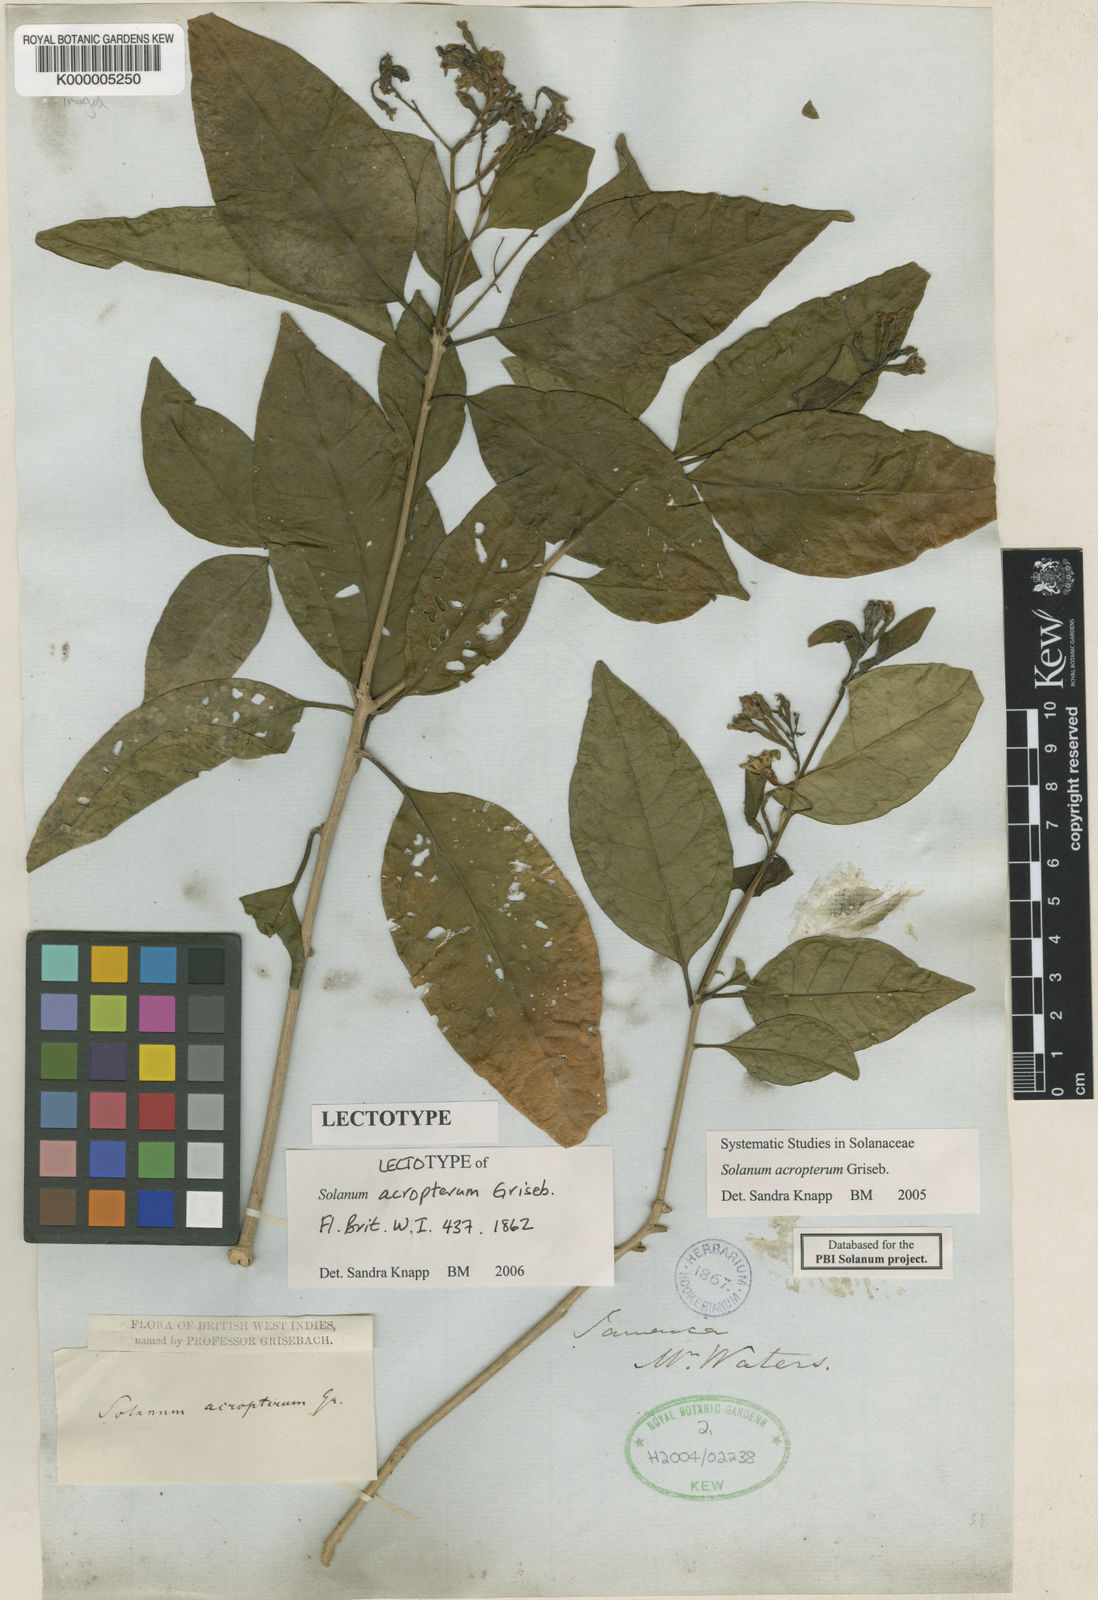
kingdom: Plantae
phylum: Tracheophyta
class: Magnoliopsida
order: Solanales
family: Solanaceae
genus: Solanum
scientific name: Solanum acropterum
